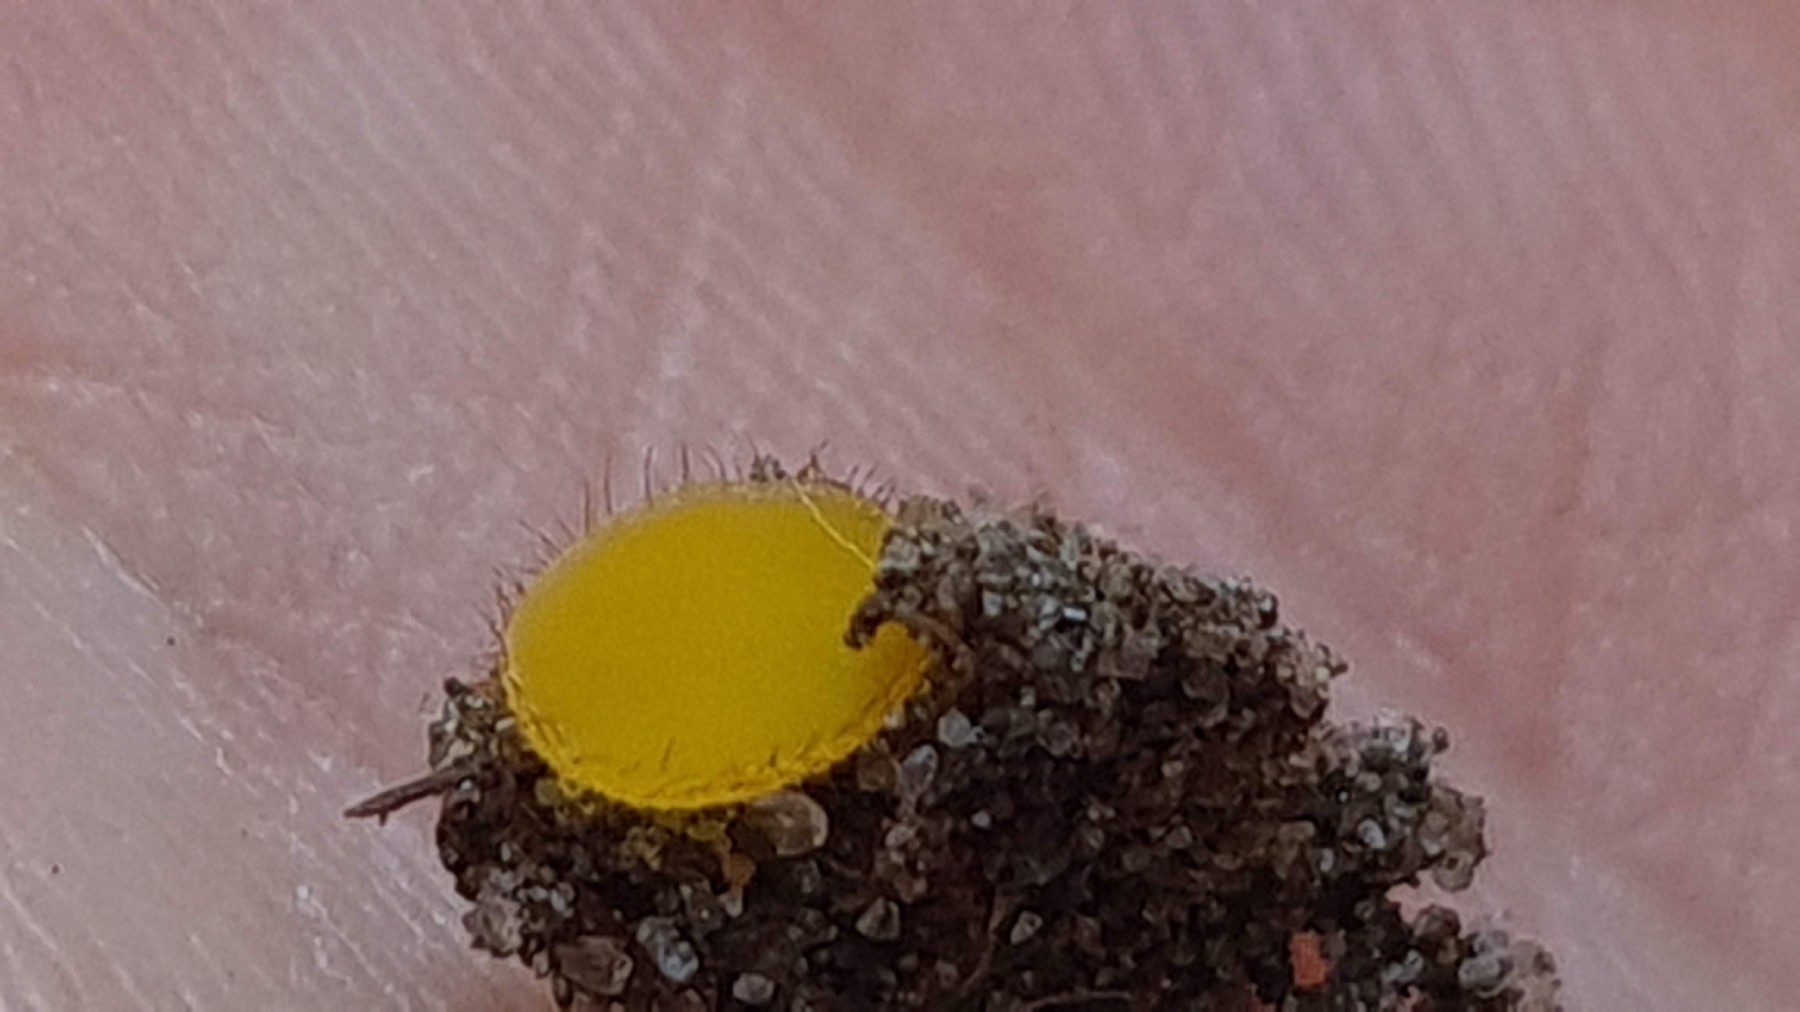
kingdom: Fungi
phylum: Ascomycota
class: Pezizomycetes
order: Pezizales
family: Pyronemataceae
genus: Cheilymenia
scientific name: Cheilymenia vitellina
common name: æggegul hårbæger
